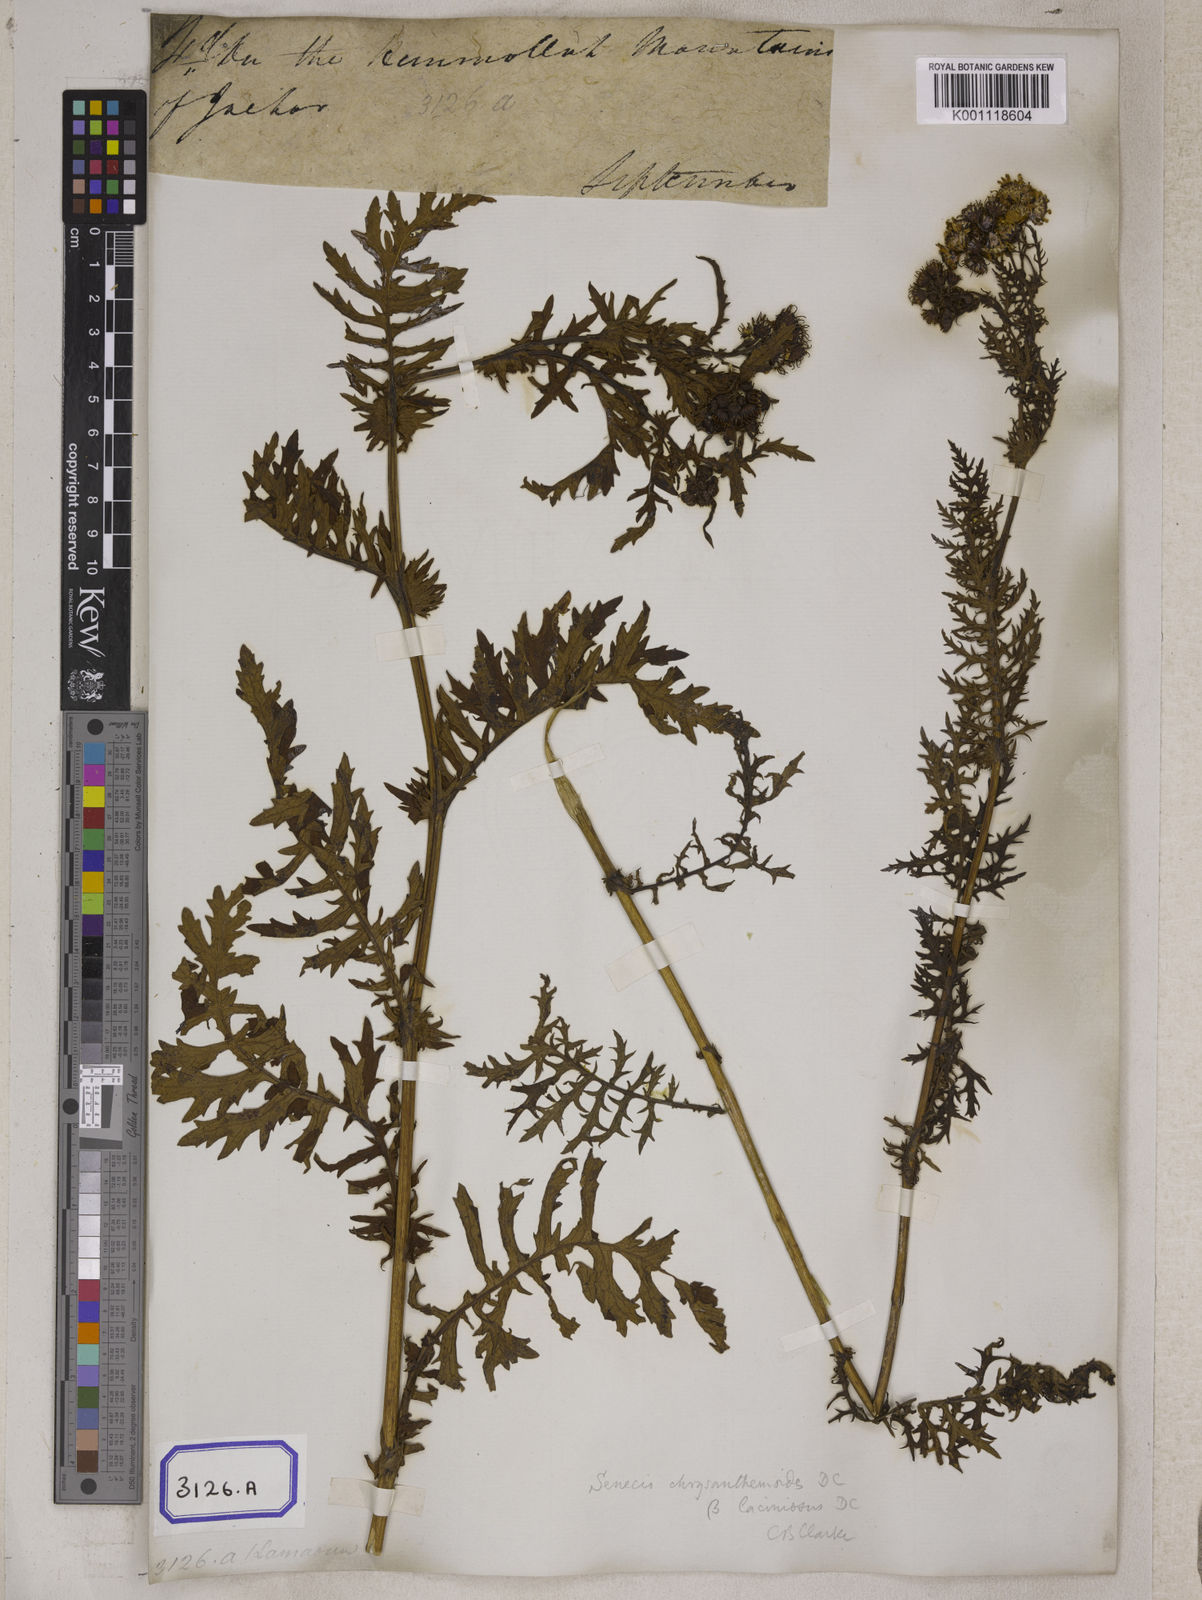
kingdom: Plantae
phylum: Tracheophyta
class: Magnoliopsida
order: Asterales
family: Asteraceae
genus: Senecio
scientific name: Senecio
